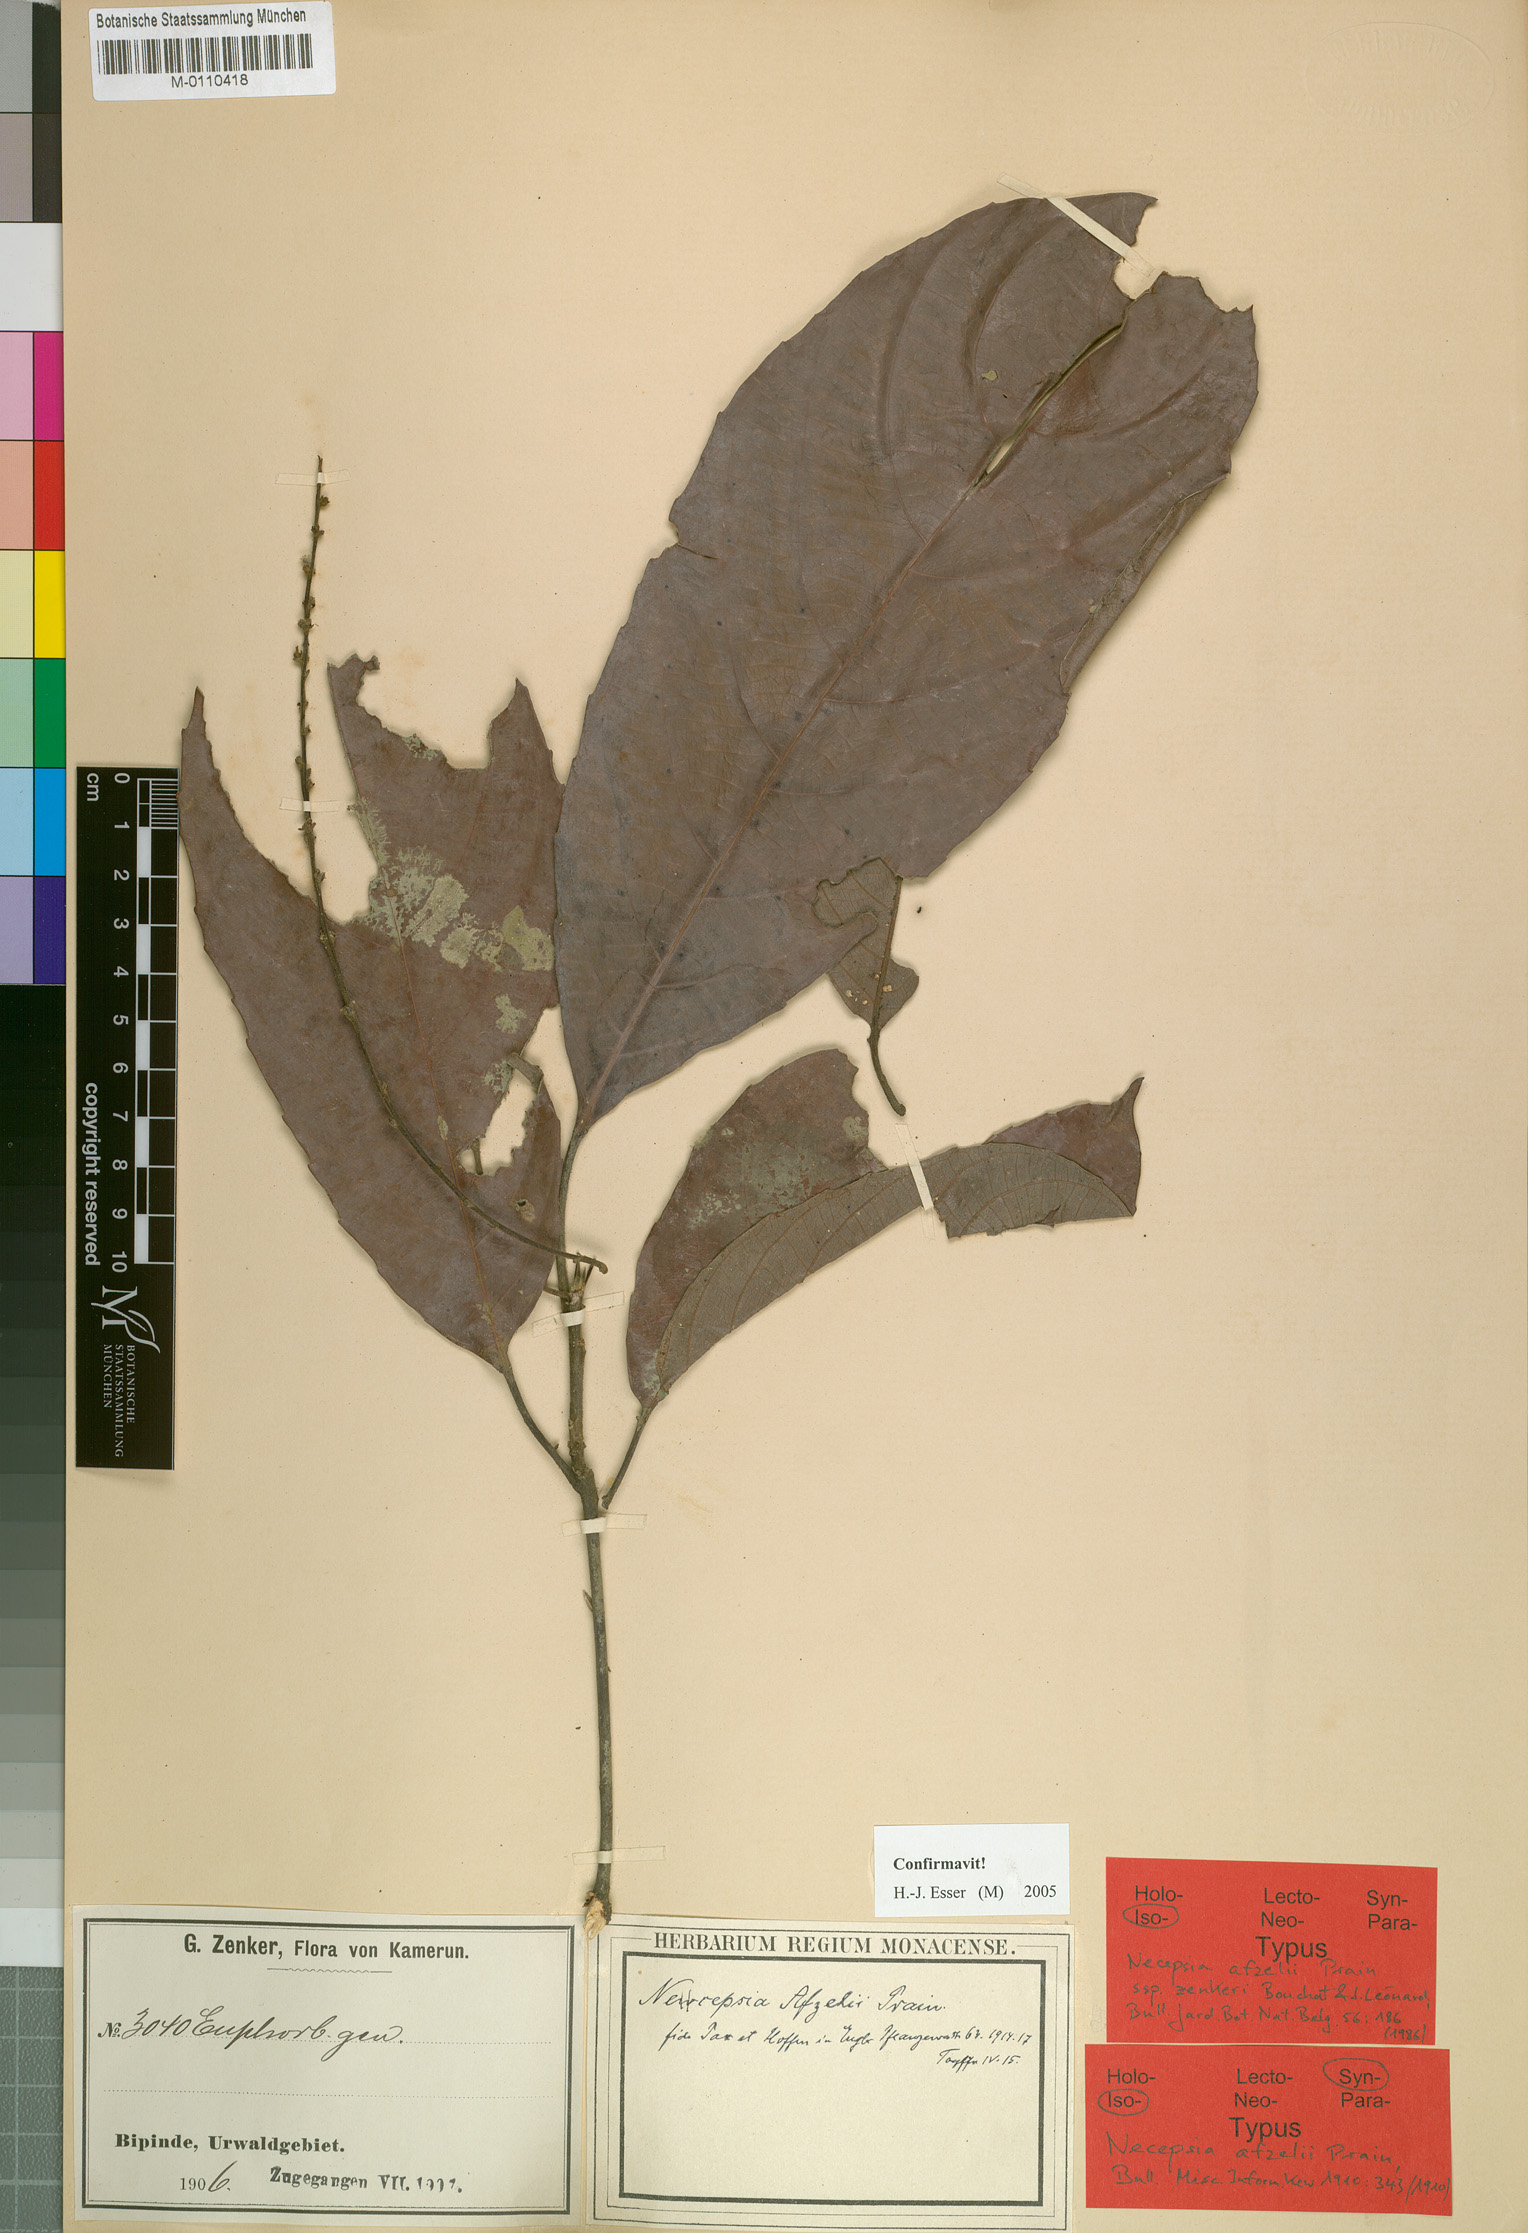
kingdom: Plantae
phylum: Tracheophyta
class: Magnoliopsida
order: Malpighiales
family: Euphorbiaceae
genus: Necepsia
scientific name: Necepsia afzelii
